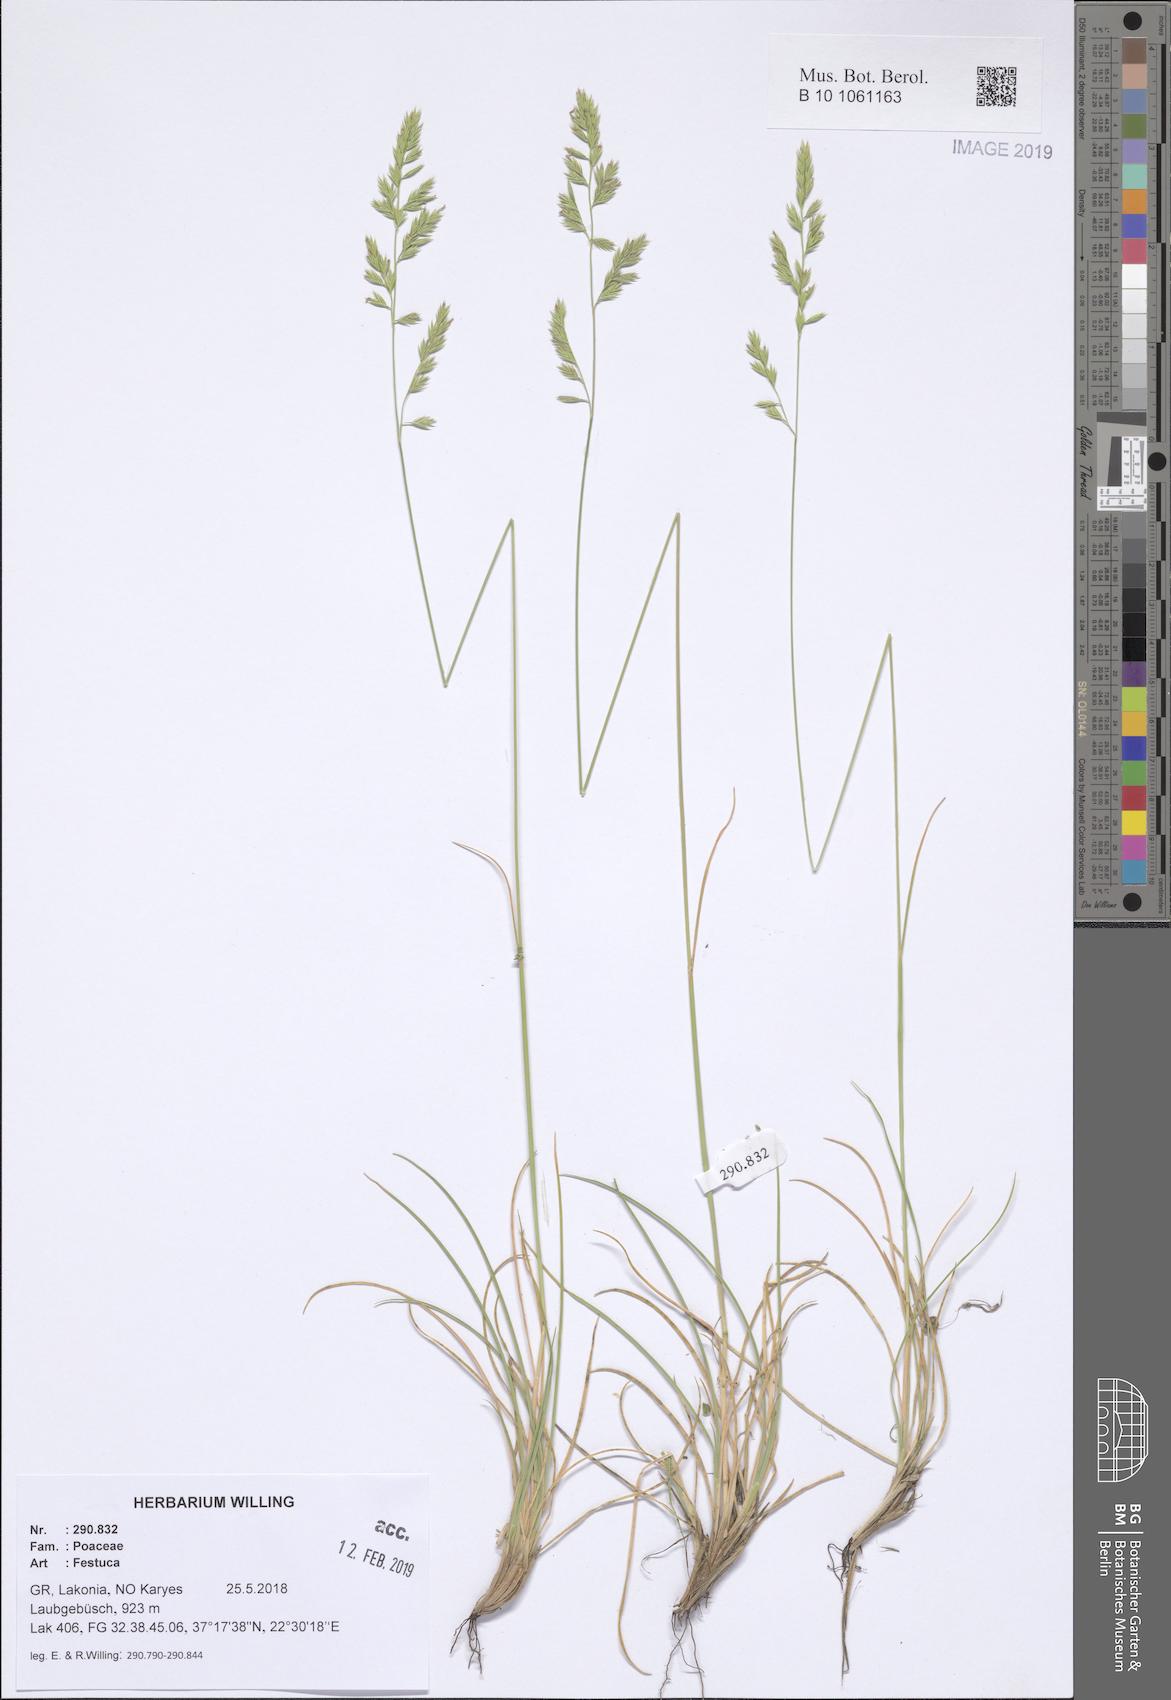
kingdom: Plantae
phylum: Tracheophyta
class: Liliopsida
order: Poales
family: Poaceae
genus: Festuca
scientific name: Festuca
